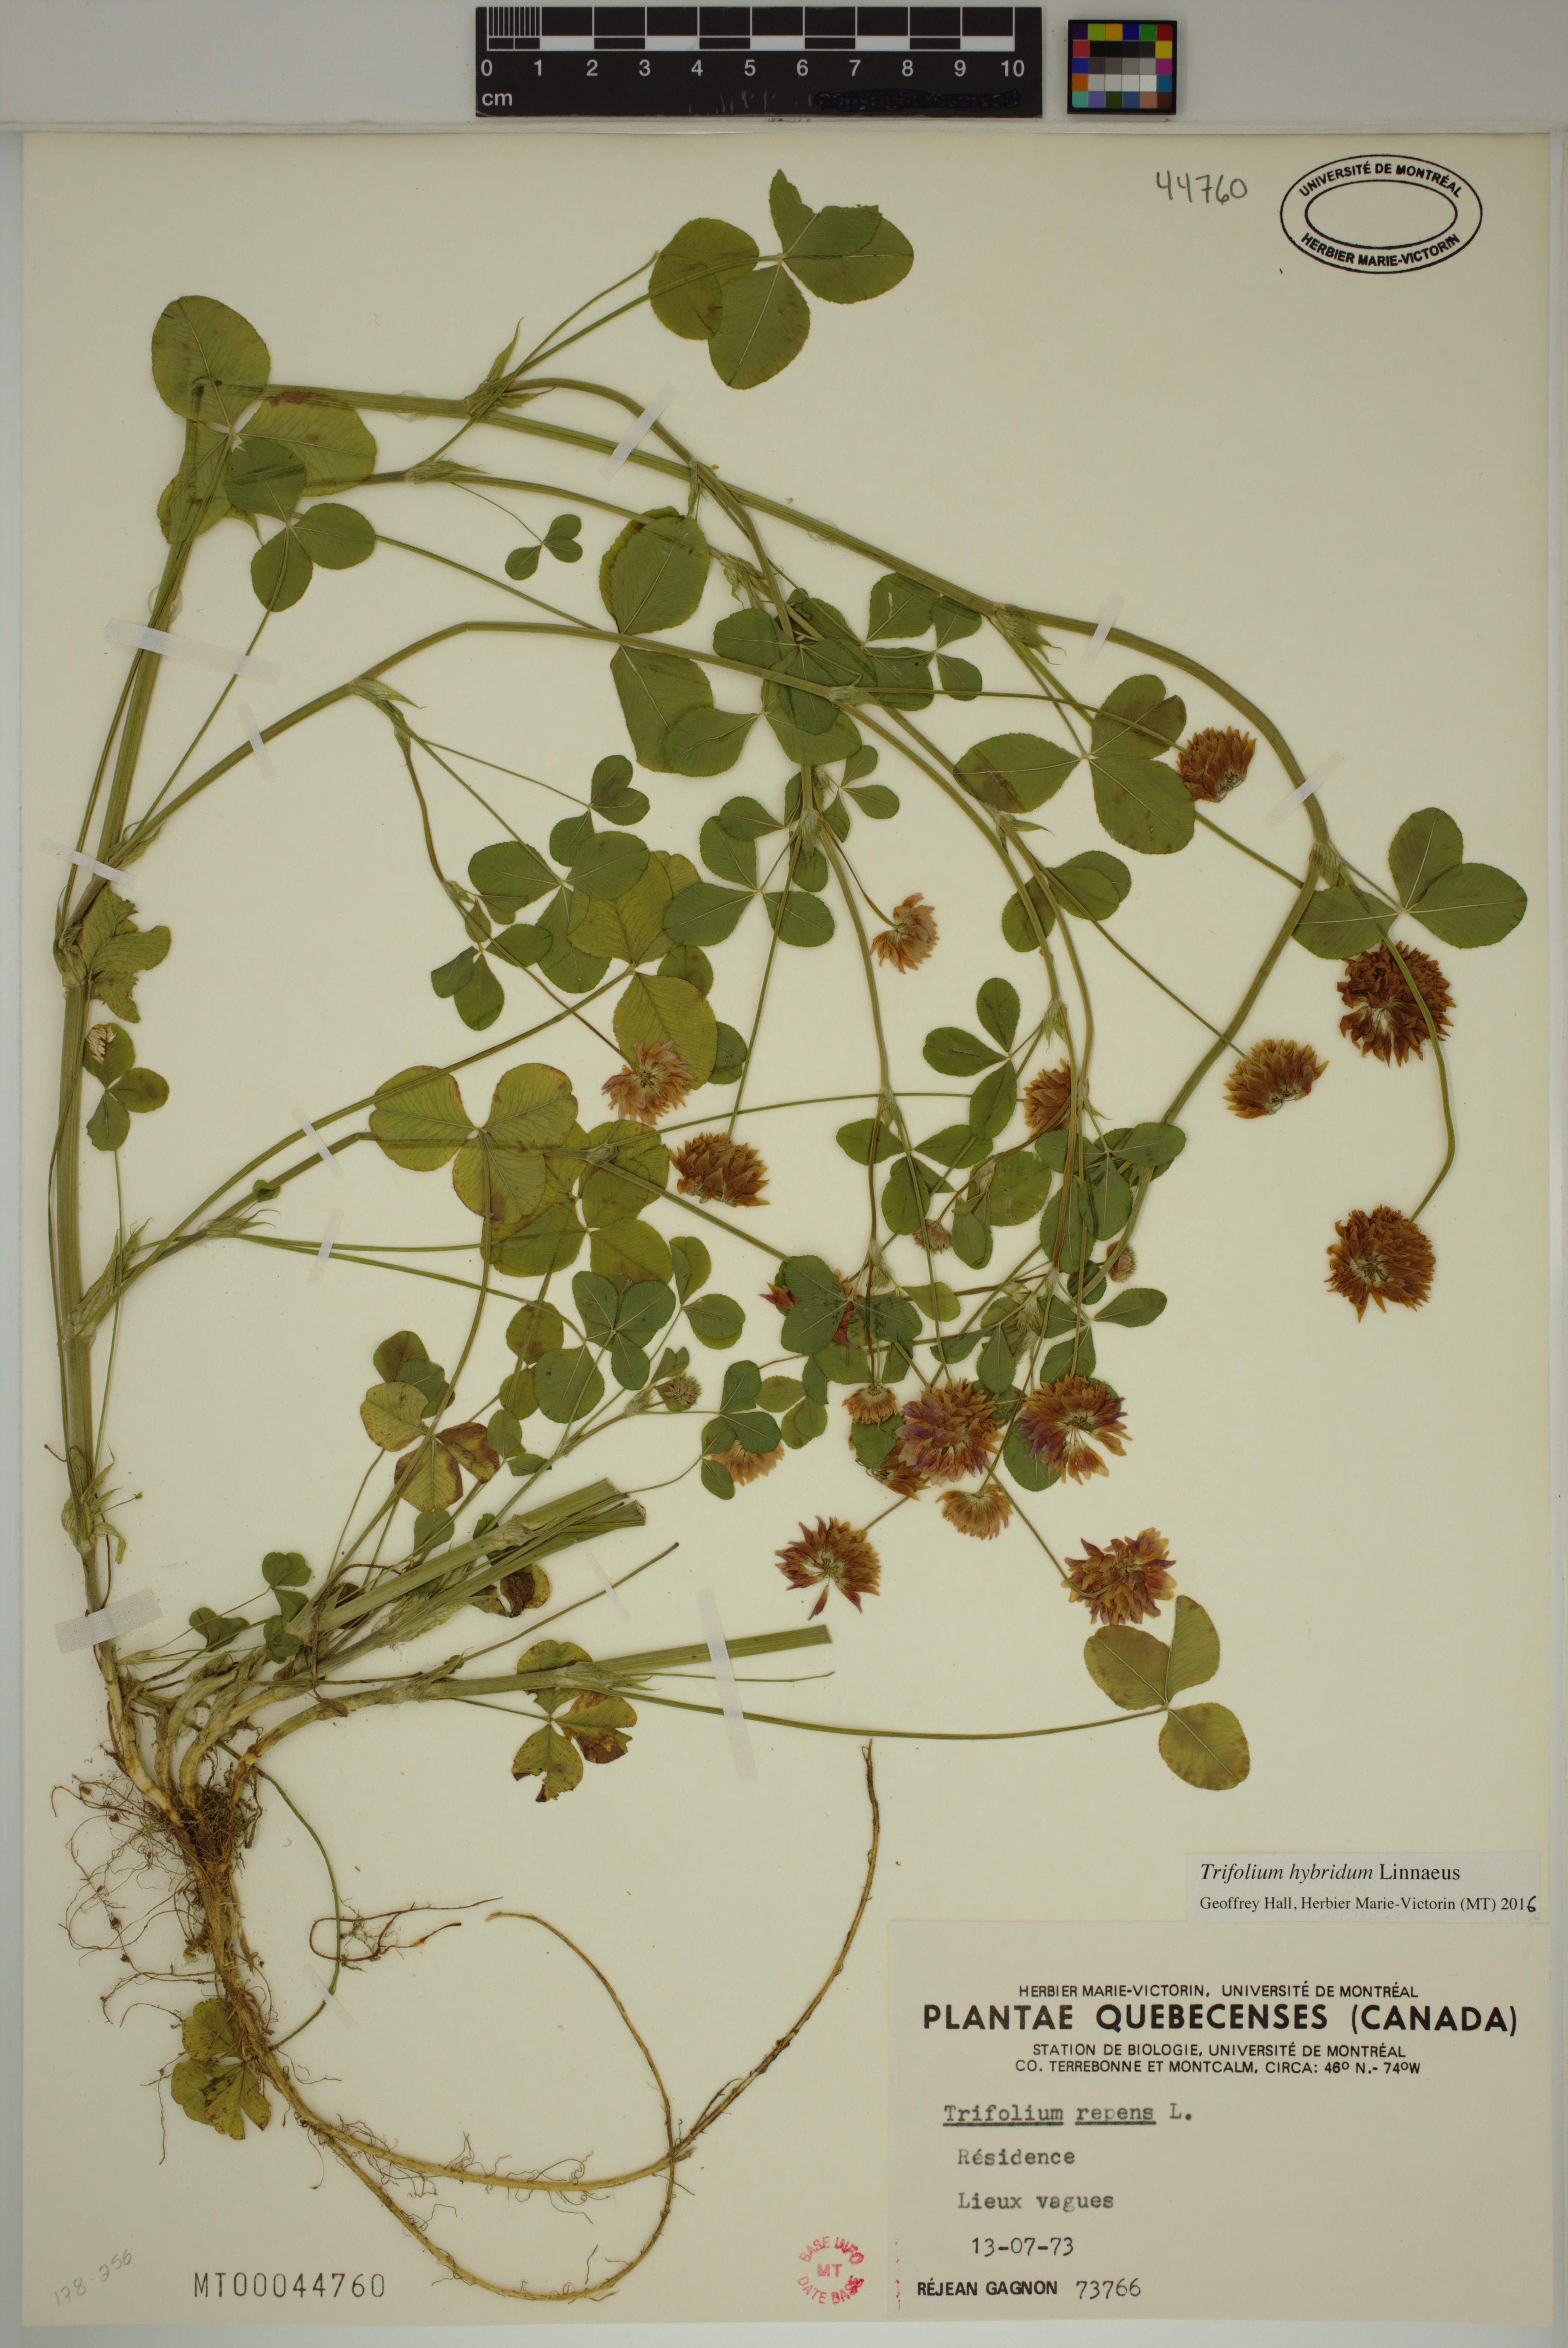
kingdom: Plantae
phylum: Tracheophyta
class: Magnoliopsida
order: Fabales
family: Fabaceae
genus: Trifolium
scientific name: Trifolium hybridum
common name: Alsike clover
